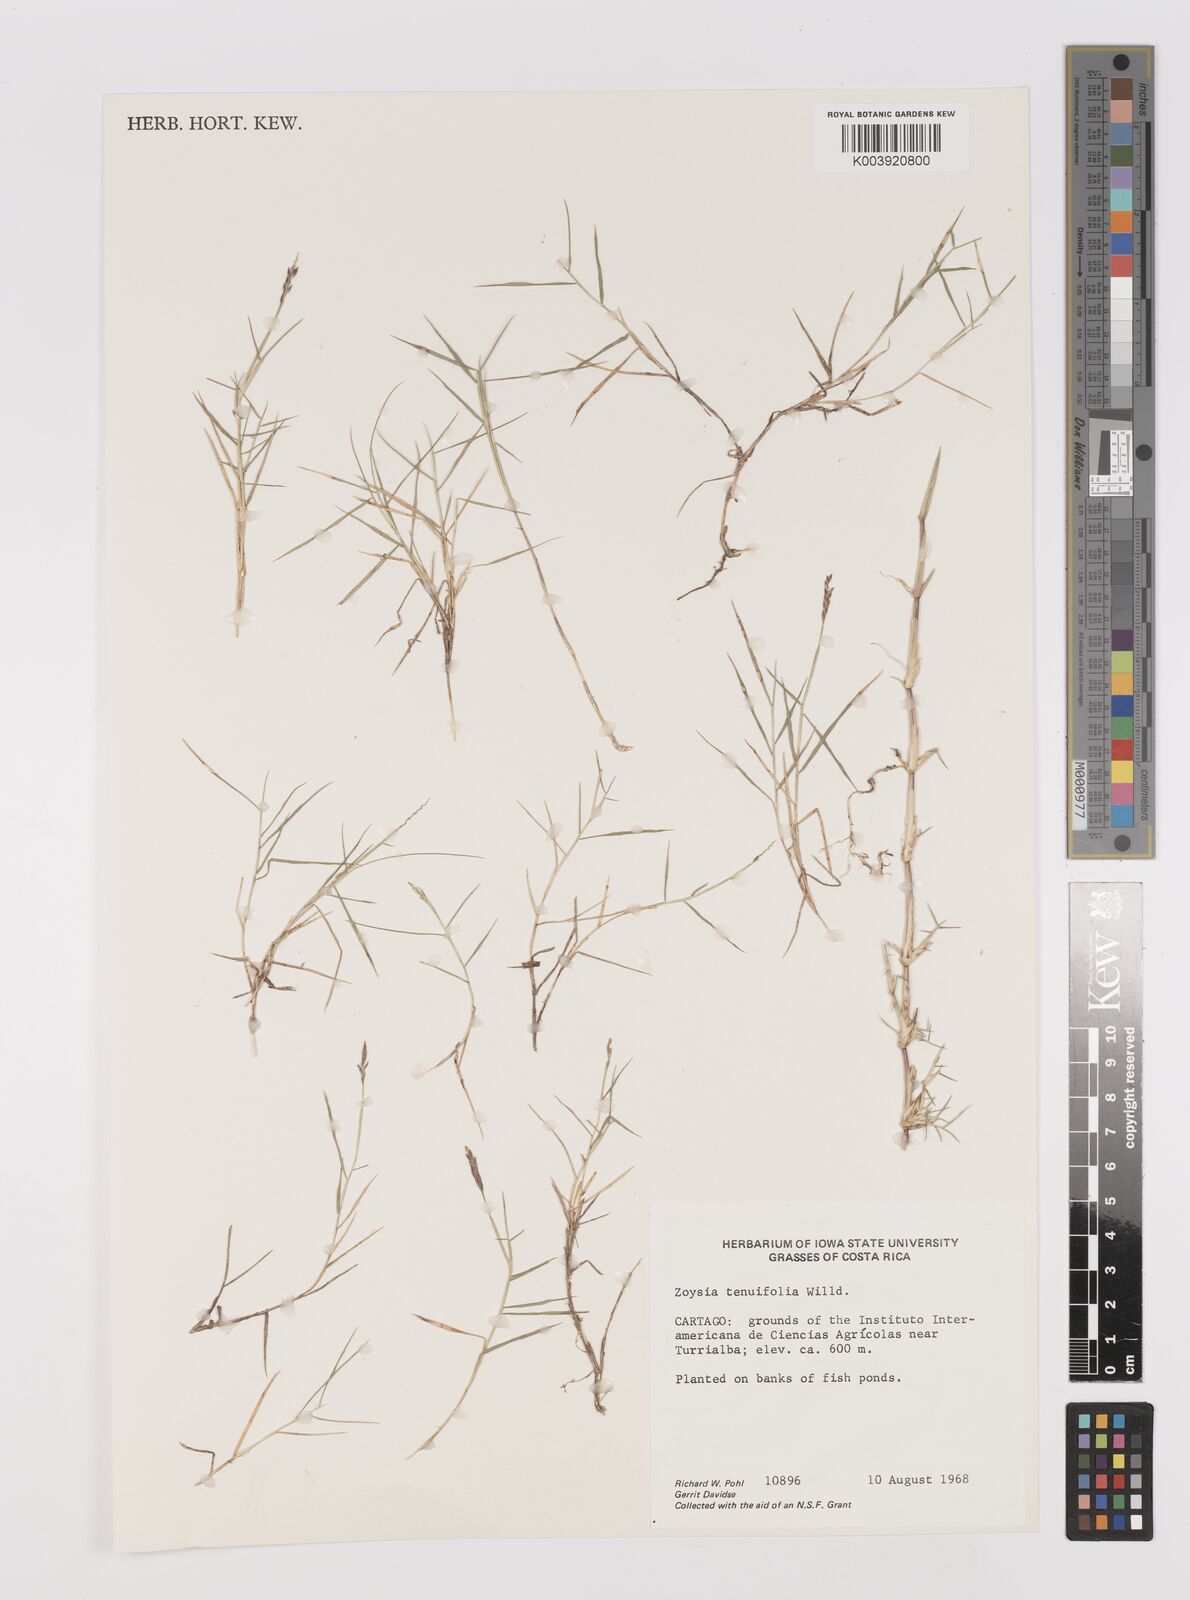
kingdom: Plantae
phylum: Tracheophyta
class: Liliopsida
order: Poales
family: Poaceae
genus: Zoysia
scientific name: Zoysia matrella
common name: Manila grass
